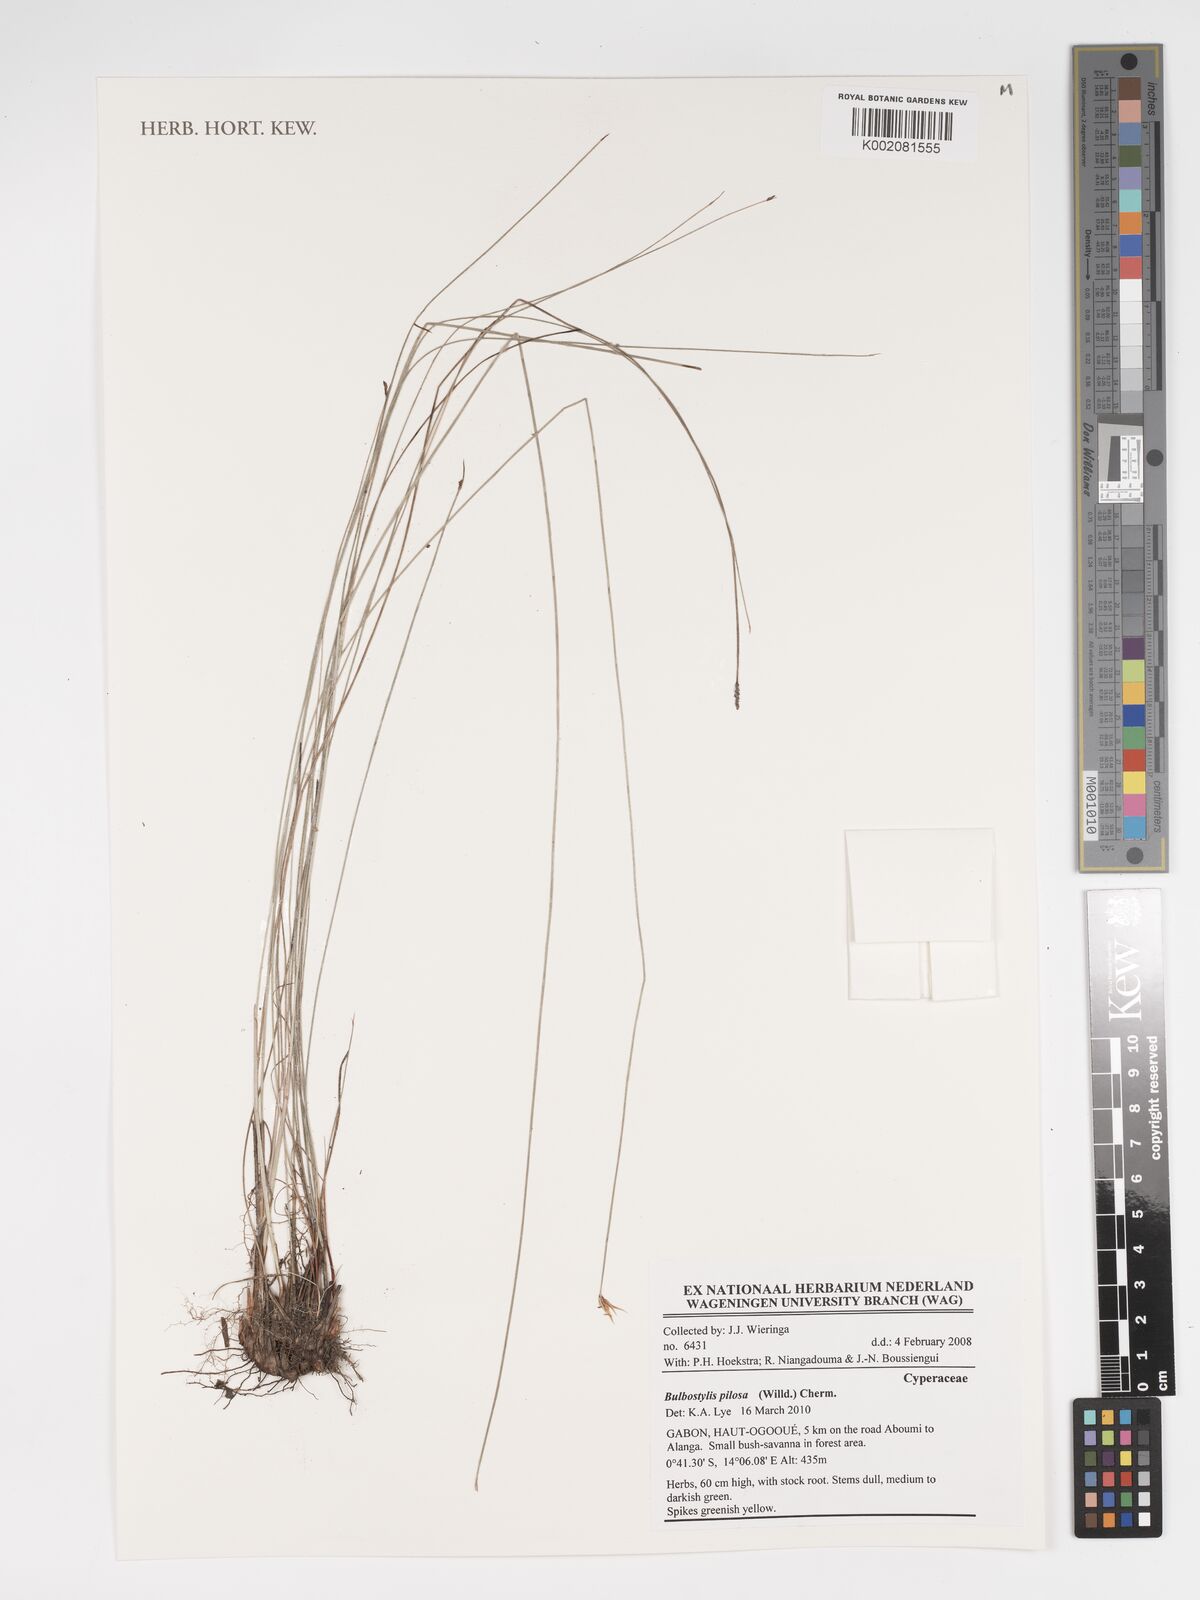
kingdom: Plantae
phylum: Tracheophyta
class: Liliopsida
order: Poales
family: Cyperaceae
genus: Bulbostylis
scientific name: Bulbostylis pilosa
